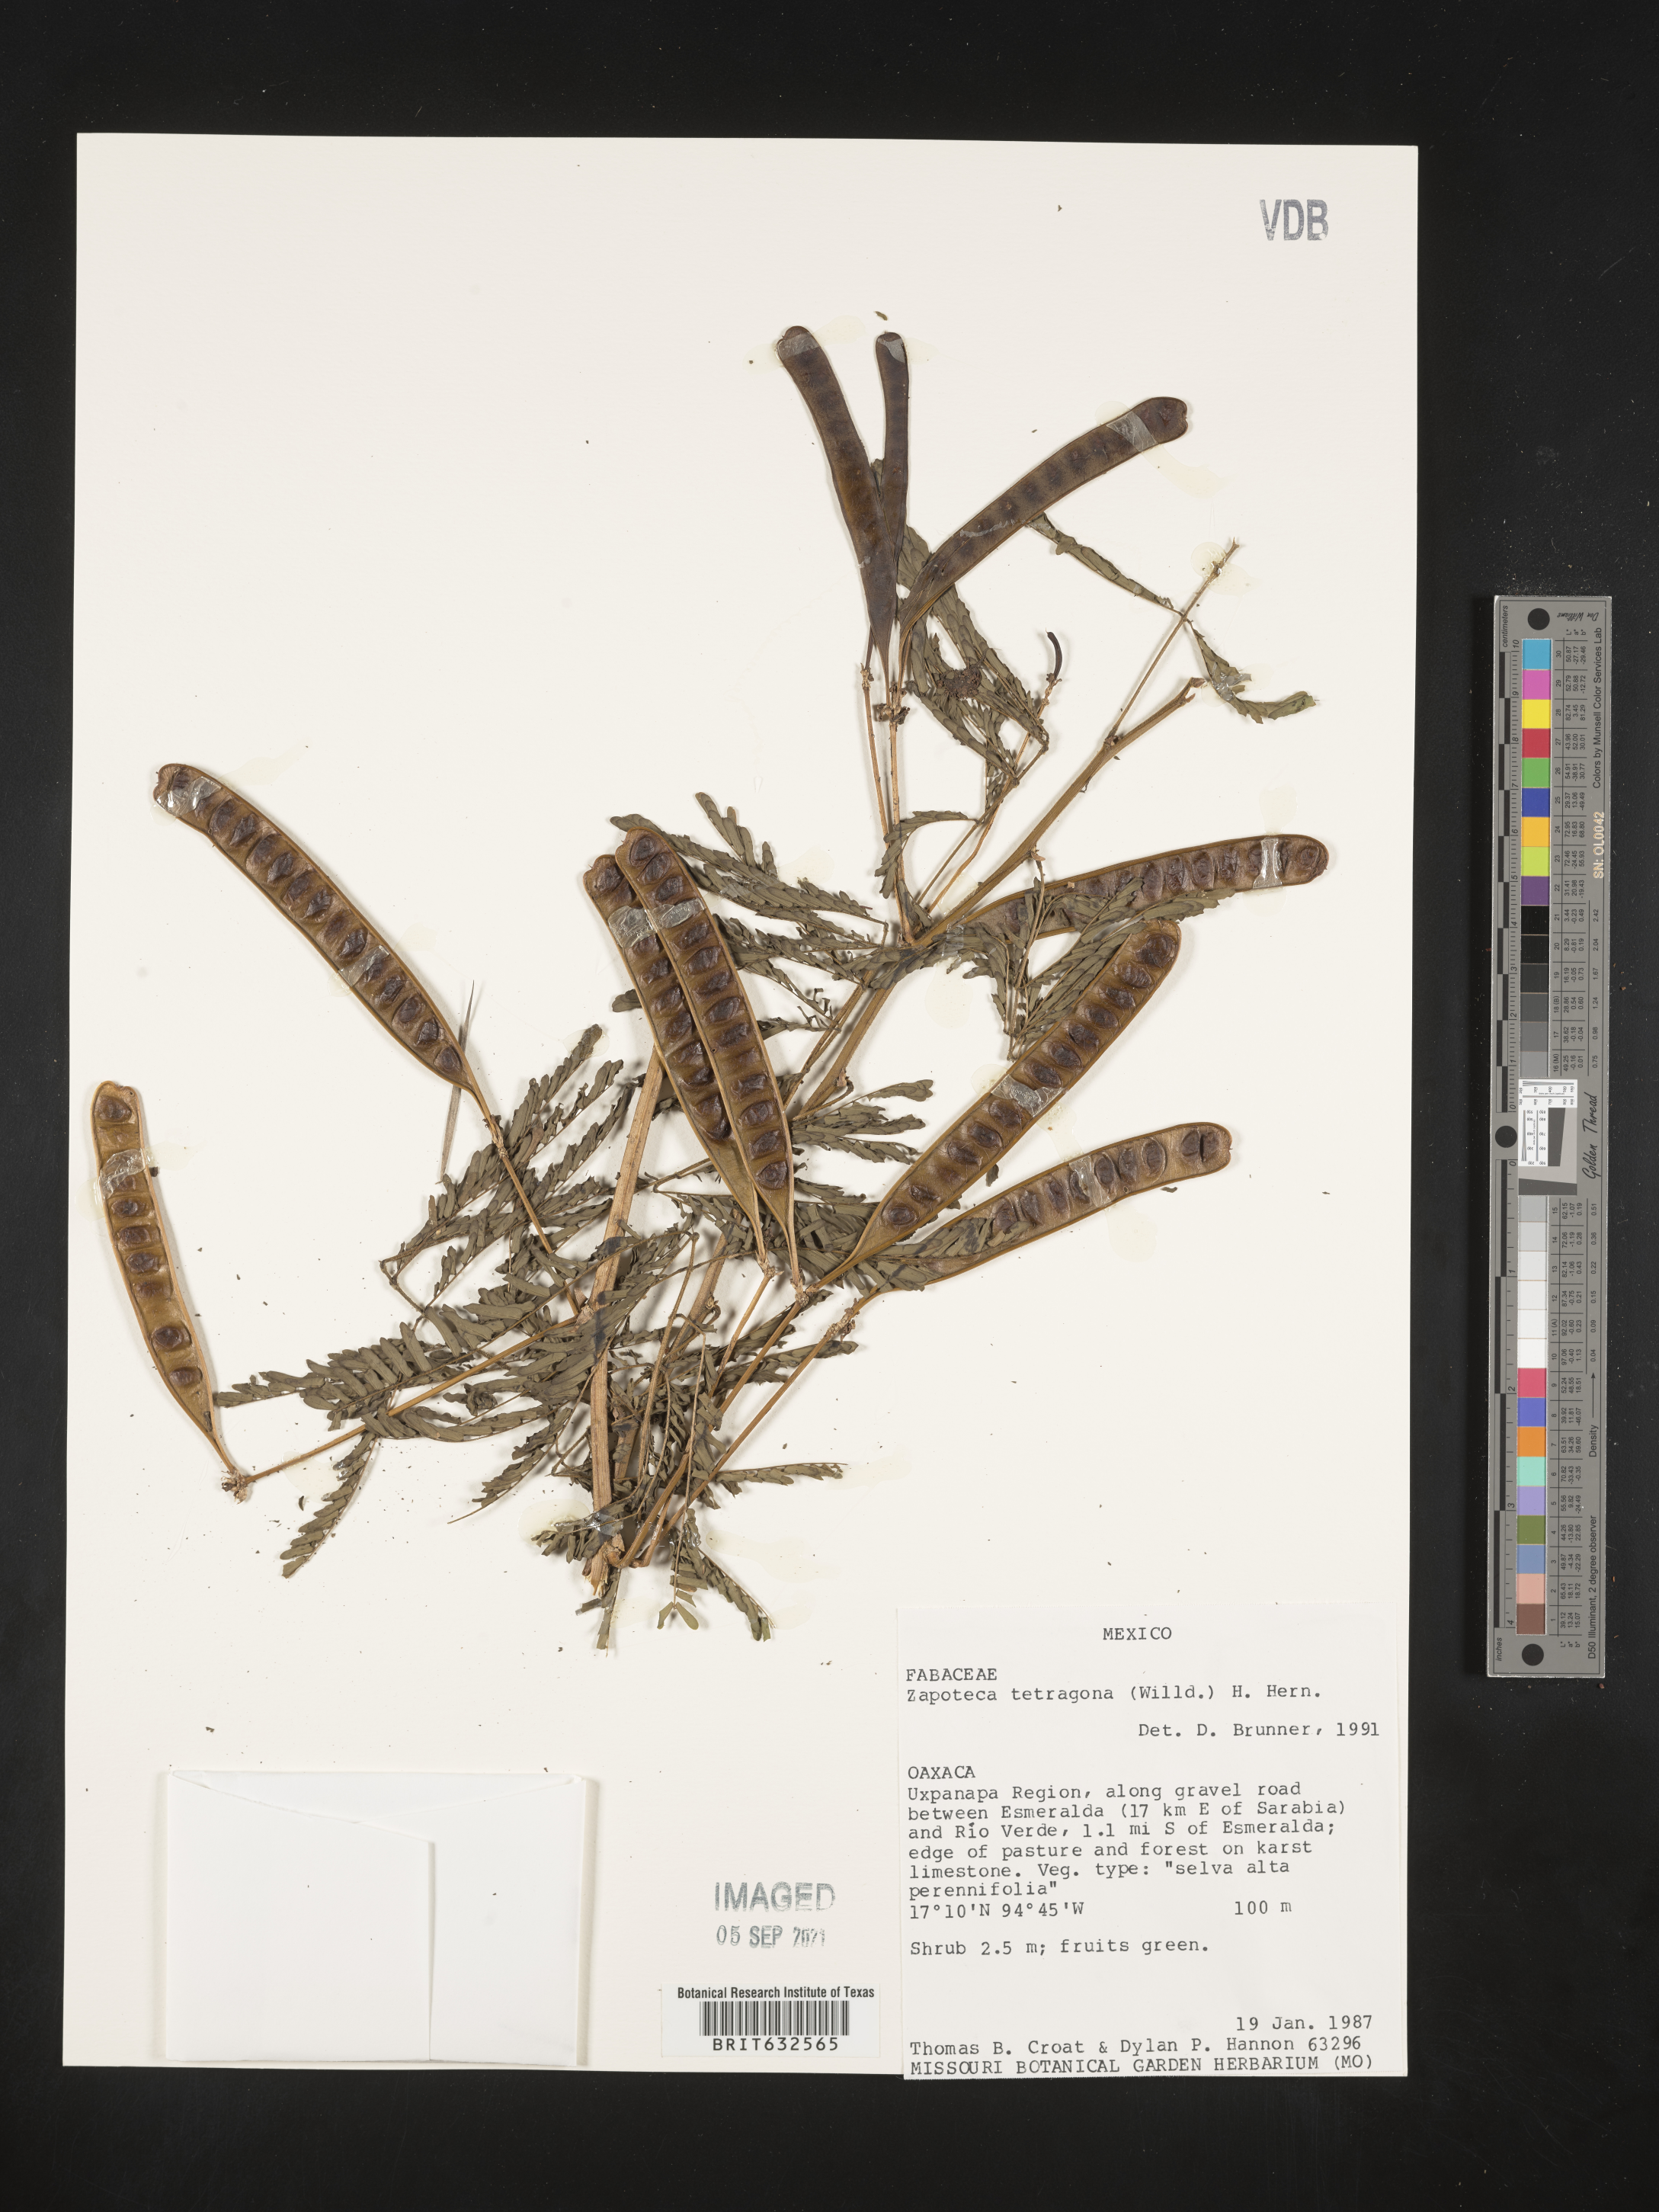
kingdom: Plantae
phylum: Tracheophyta
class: Magnoliopsida
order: Fabales
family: Fabaceae
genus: Zapoteca
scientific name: Zapoteca
